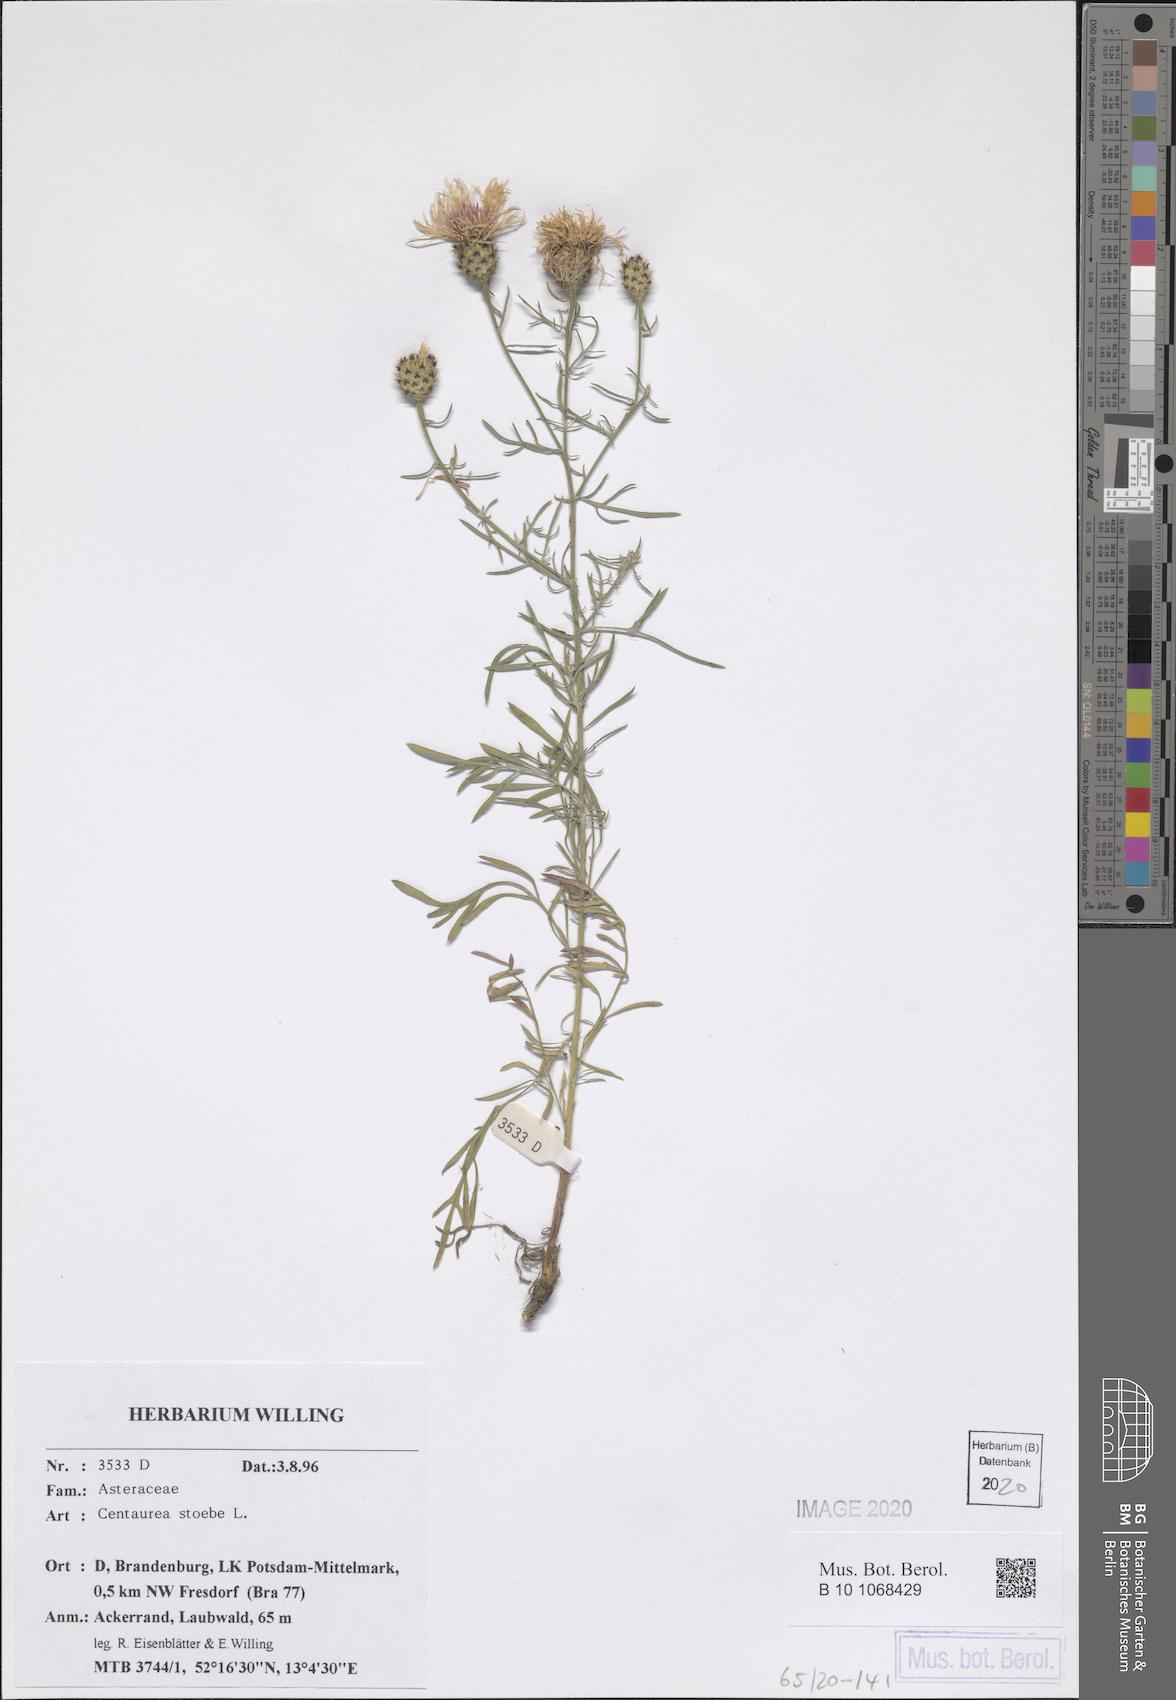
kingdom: Plantae
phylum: Tracheophyta
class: Magnoliopsida
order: Asterales
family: Asteraceae
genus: Centaurea
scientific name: Centaurea stoebe
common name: Spotted knapweed
